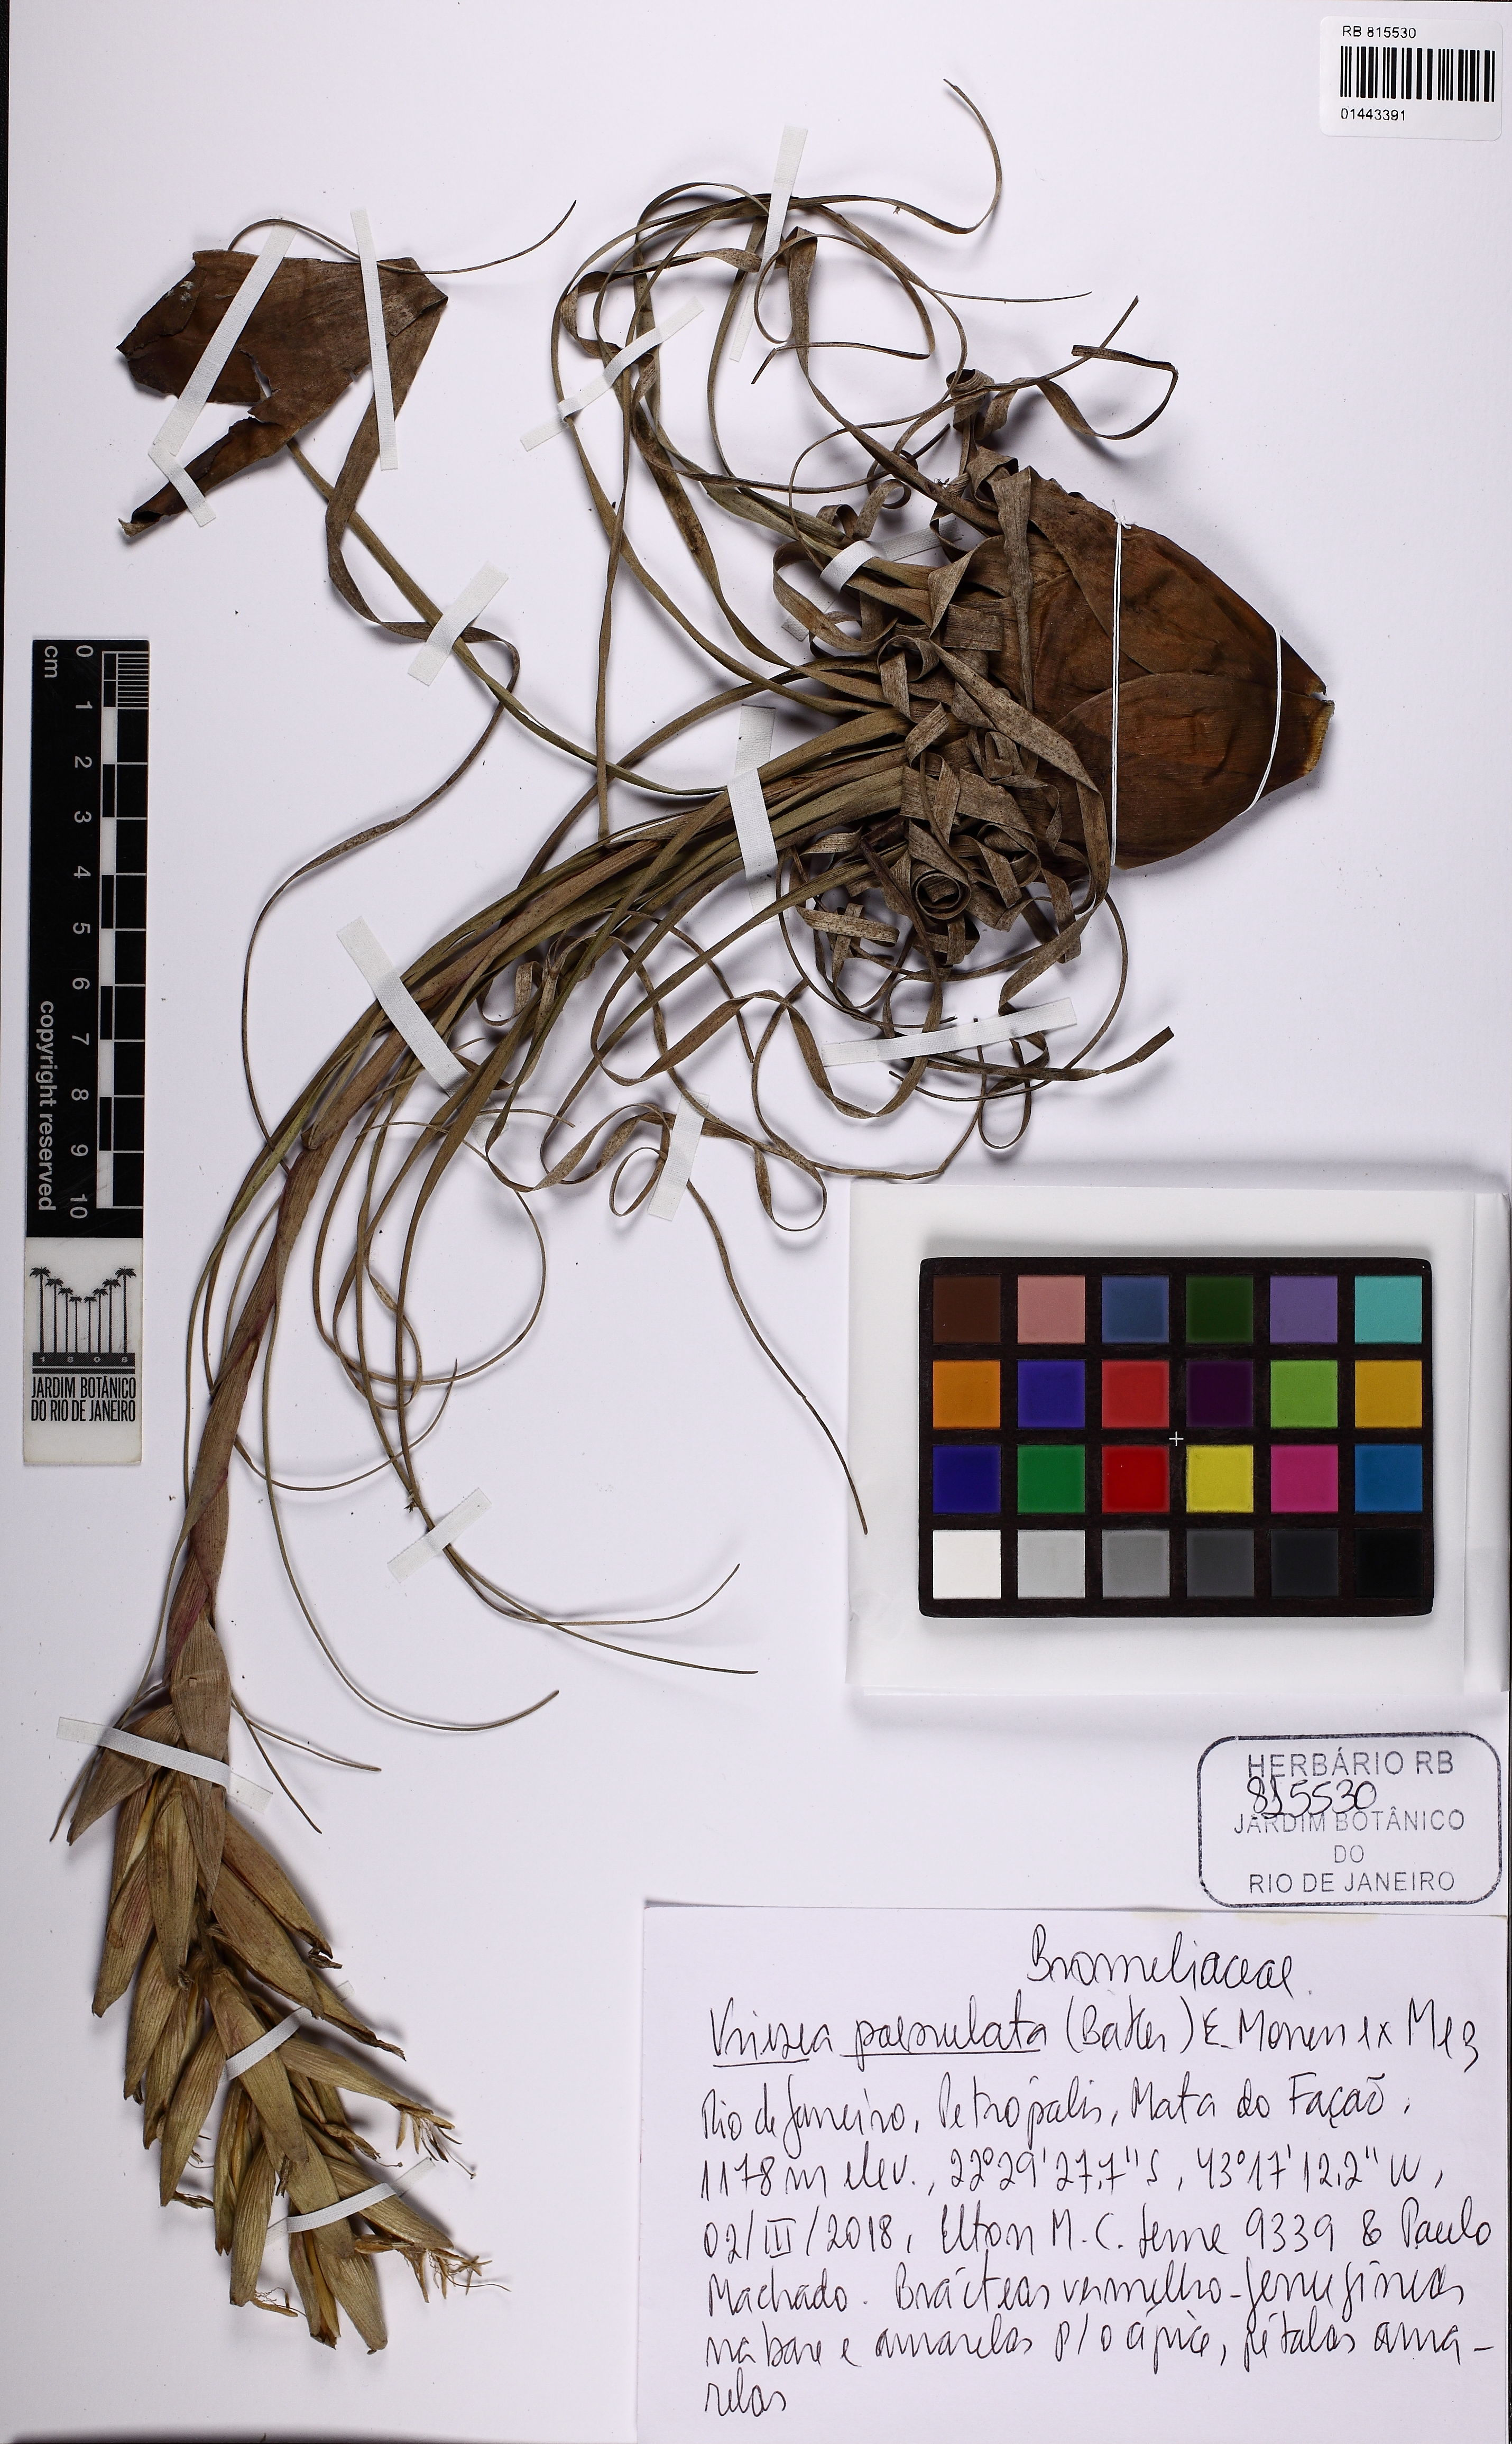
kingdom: Plantae
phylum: Tracheophyta
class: Liliopsida
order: Poales
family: Bromeliaceae
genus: Vriesea
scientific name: Vriesea poenulata
